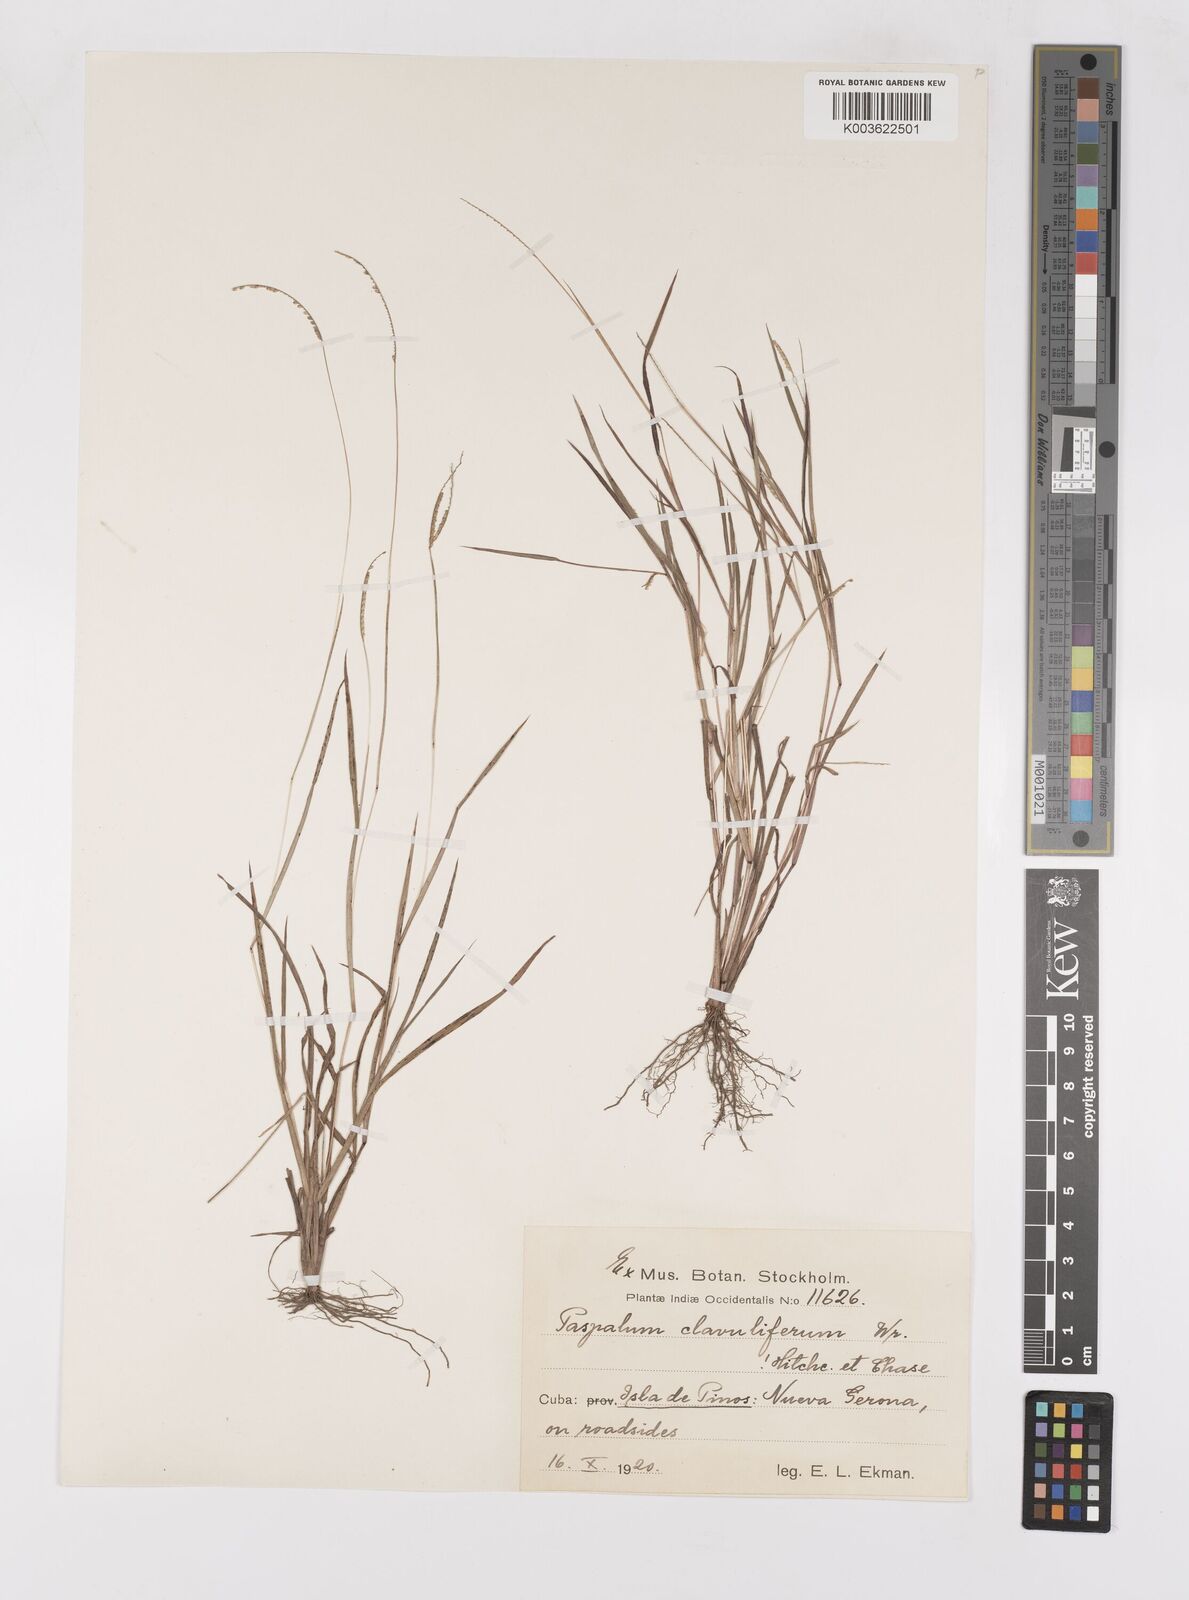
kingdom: Plantae
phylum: Tracheophyta
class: Liliopsida
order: Poales
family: Poaceae
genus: Paspalum
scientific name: Paspalum clavuliferum
